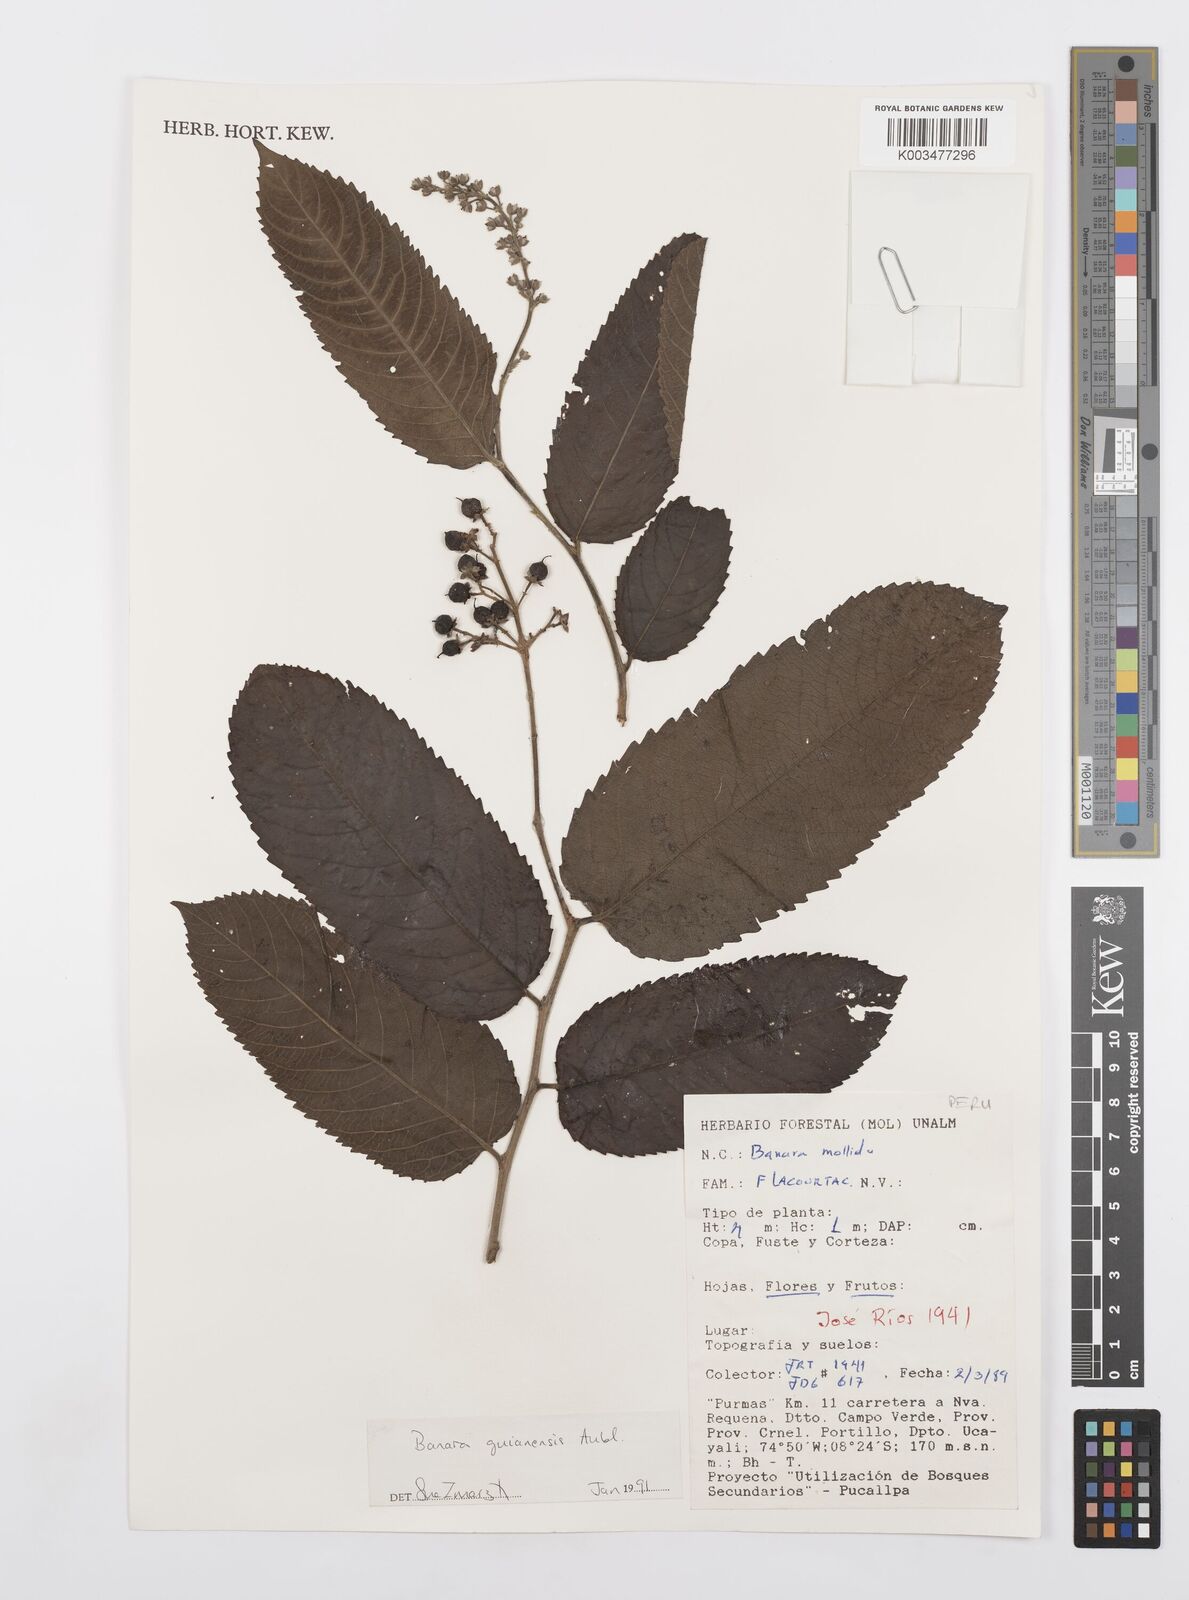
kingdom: Plantae
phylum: Tracheophyta
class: Magnoliopsida
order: Malpighiales
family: Salicaceae
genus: Banara
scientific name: Banara guianensis
